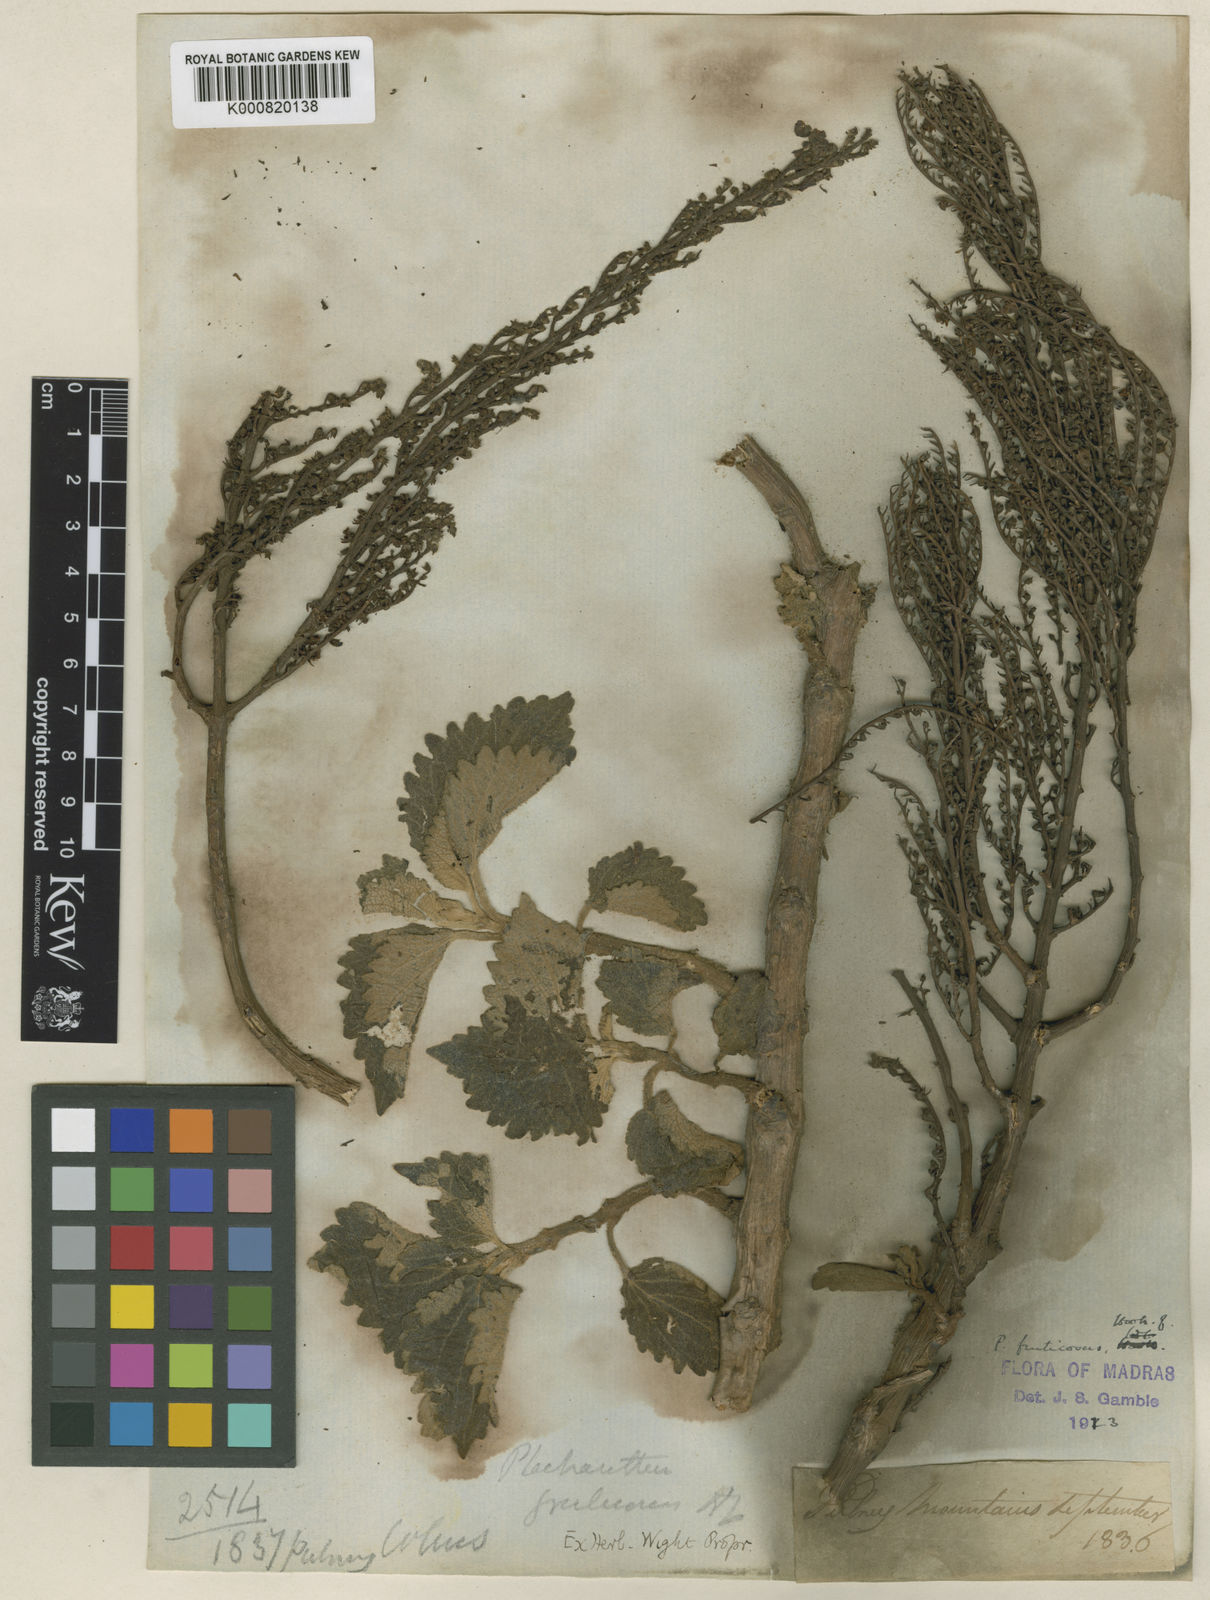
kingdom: Plantae
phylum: Tracheophyta
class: Magnoliopsida
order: Lamiales
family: Lamiaceae
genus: Coleus
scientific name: Coleus fruticosus
